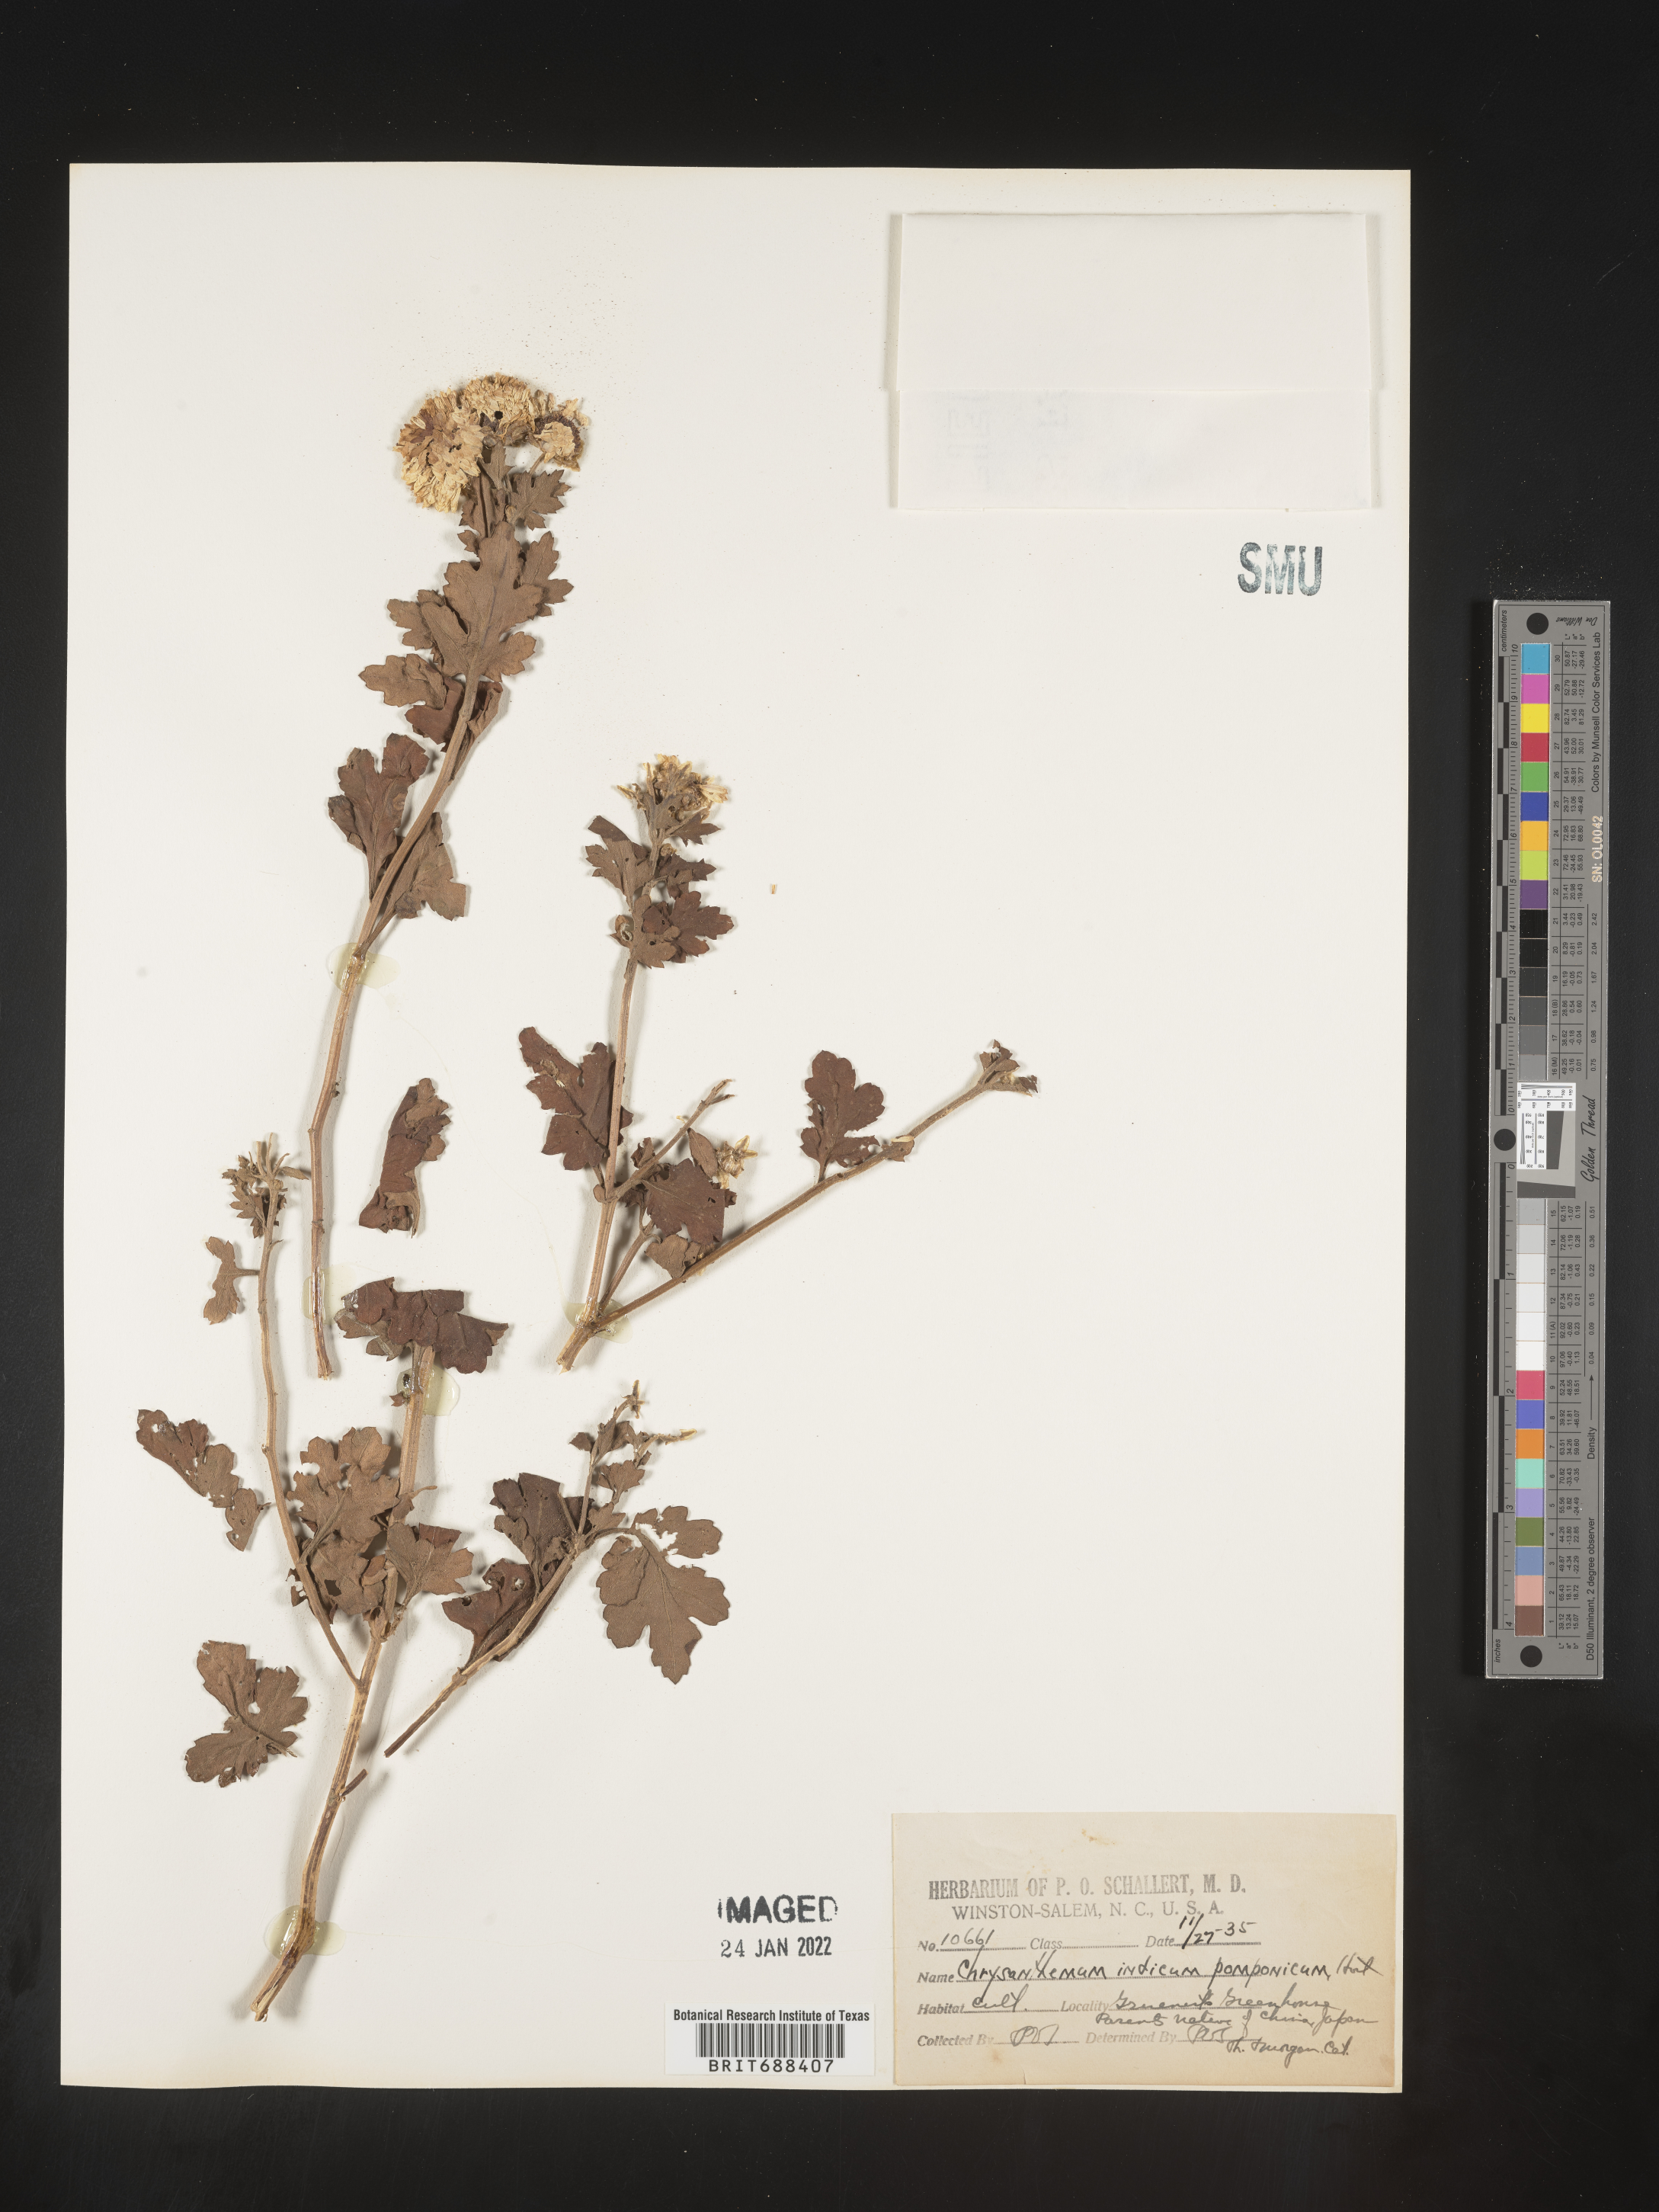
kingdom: Plantae
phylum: Tracheophyta
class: Magnoliopsida
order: Asterales
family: Asteraceae
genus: Chrysanthemum
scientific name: Chrysanthemum
